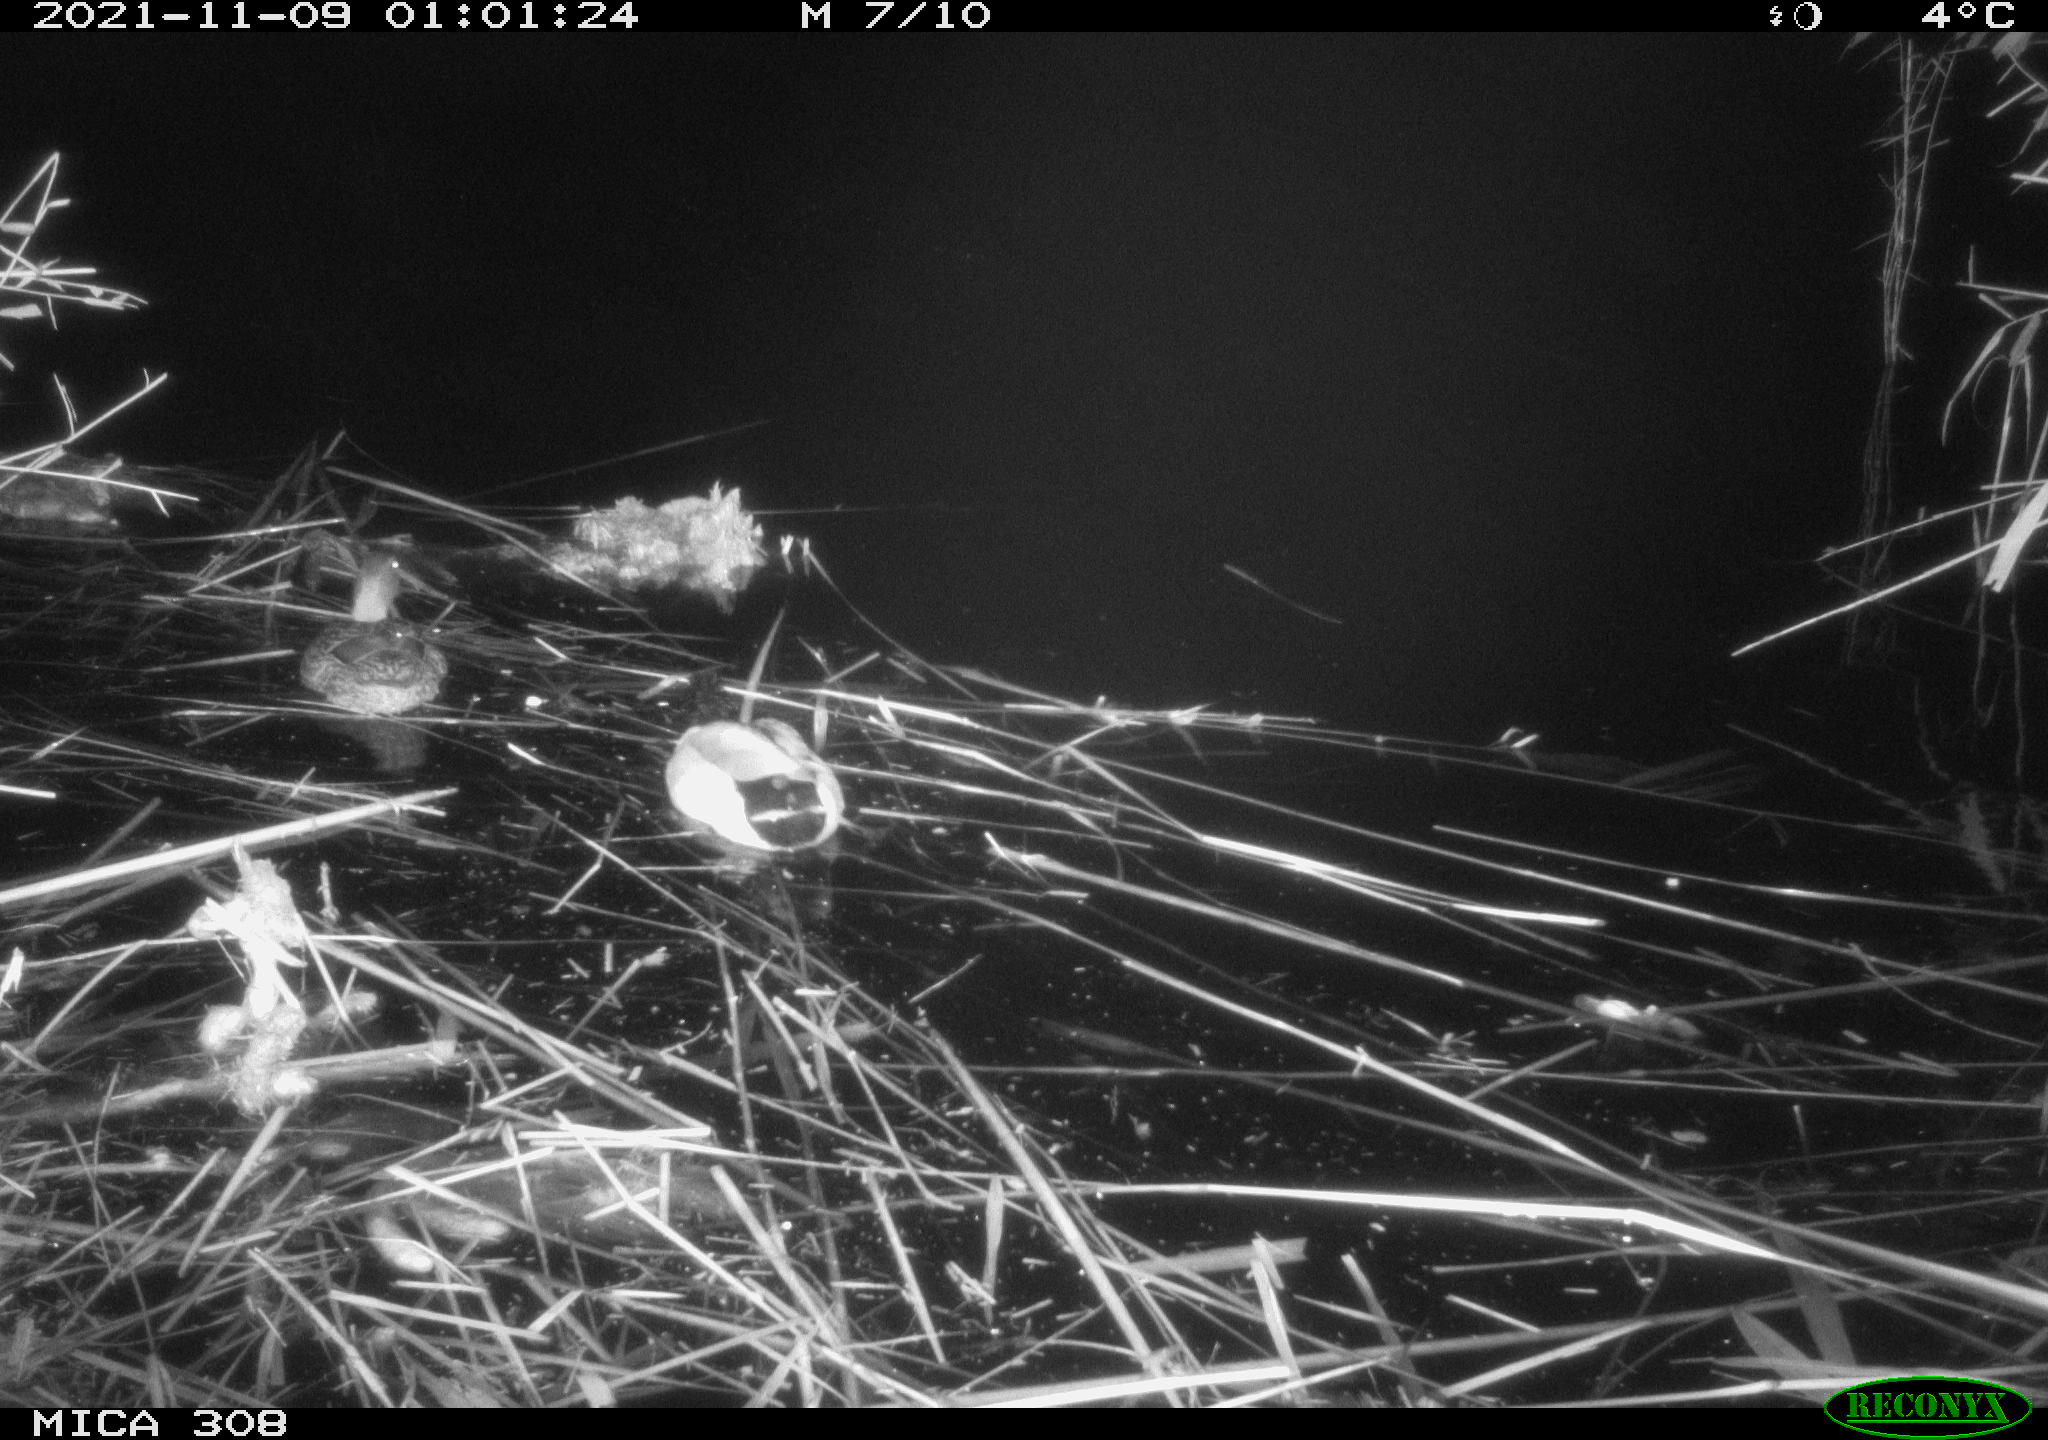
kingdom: Animalia
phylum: Chordata
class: Aves
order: Anseriformes
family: Anatidae
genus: Anas
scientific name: Anas platyrhynchos
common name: Mallard
